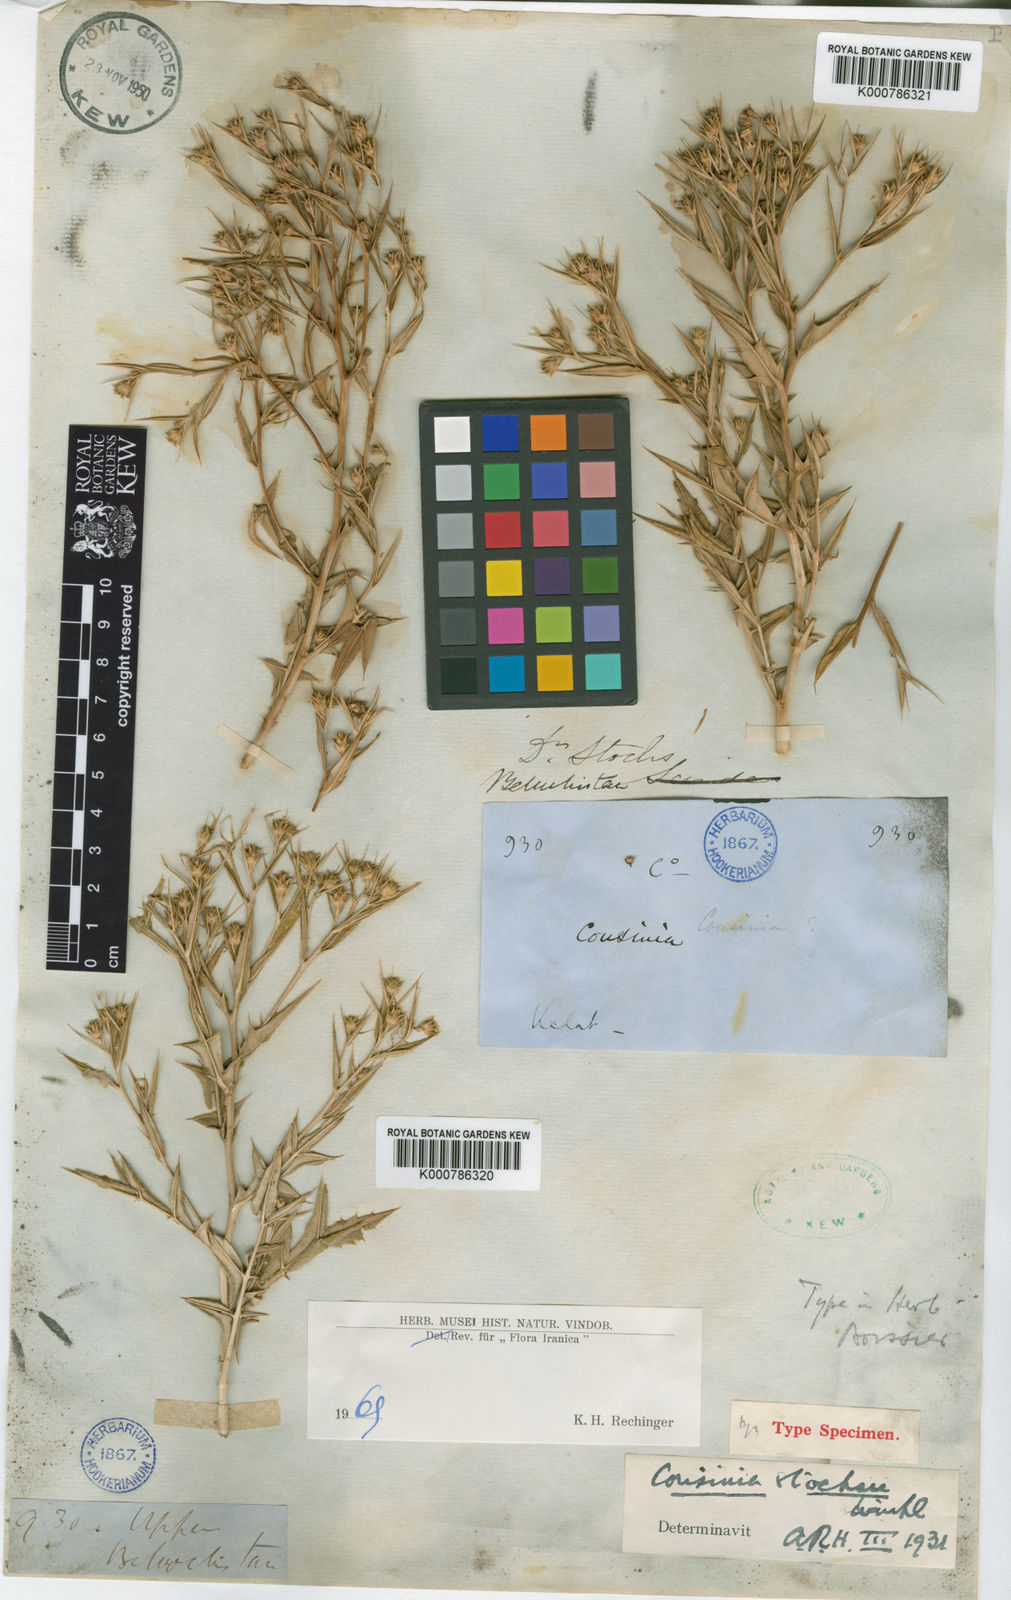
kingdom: Plantae
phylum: Tracheophyta
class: Magnoliopsida
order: Asterales
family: Asteraceae
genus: Cousinia
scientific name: Cousinia stocksii
